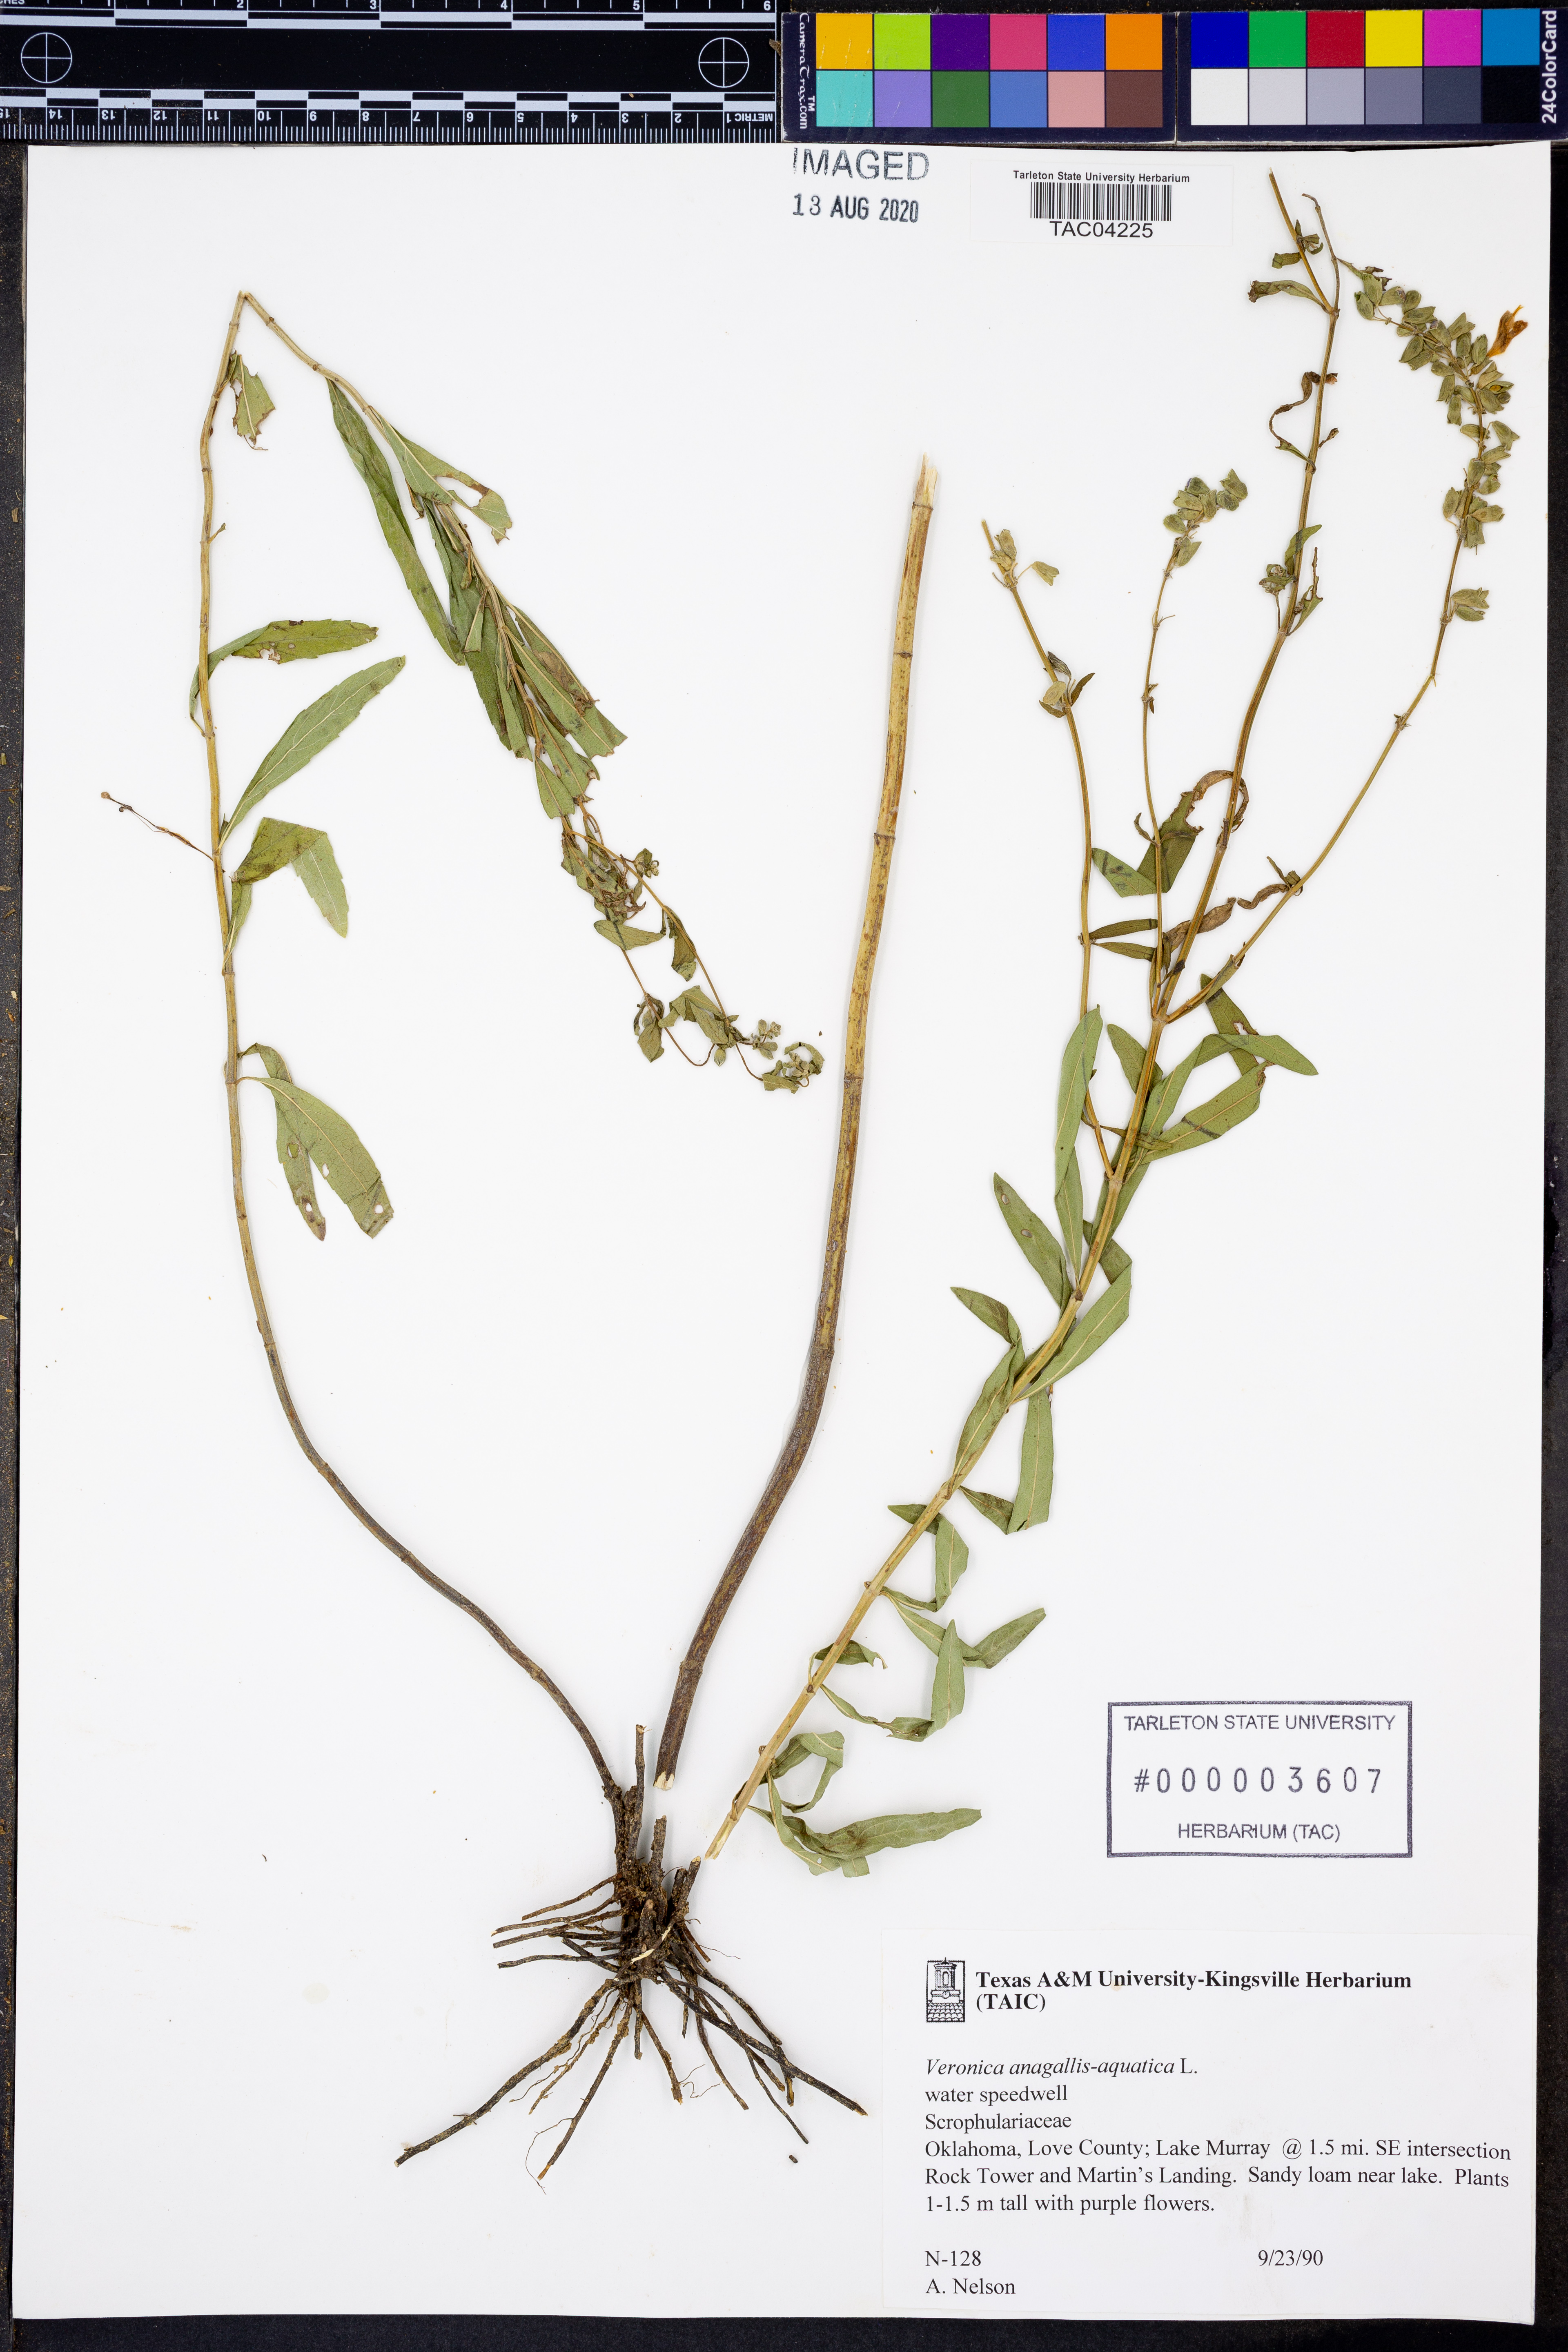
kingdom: Plantae
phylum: Tracheophyta
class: Magnoliopsida
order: Lamiales
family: Plantaginaceae
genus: Veronica
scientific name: Veronica anagallis-aquatica
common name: Water speedwell
